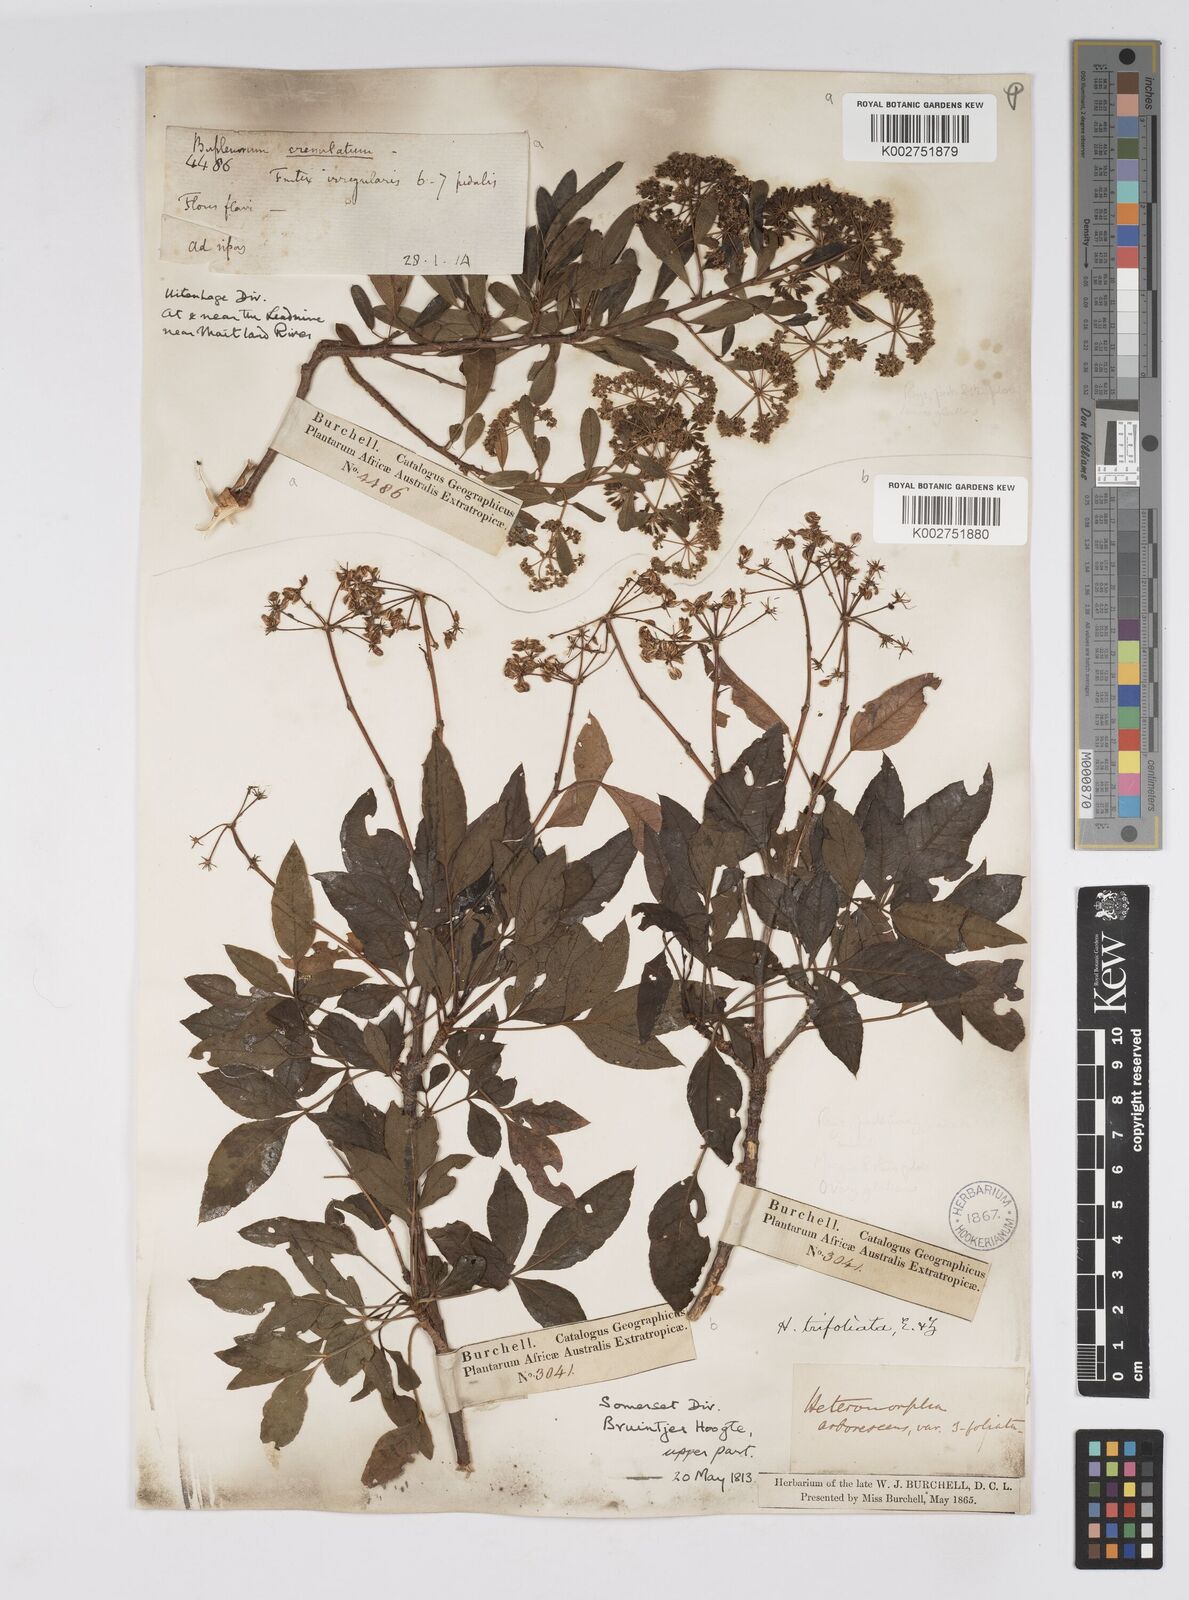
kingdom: Plantae
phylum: Tracheophyta
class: Magnoliopsida
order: Apiales
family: Apiaceae
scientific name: Apiaceae
